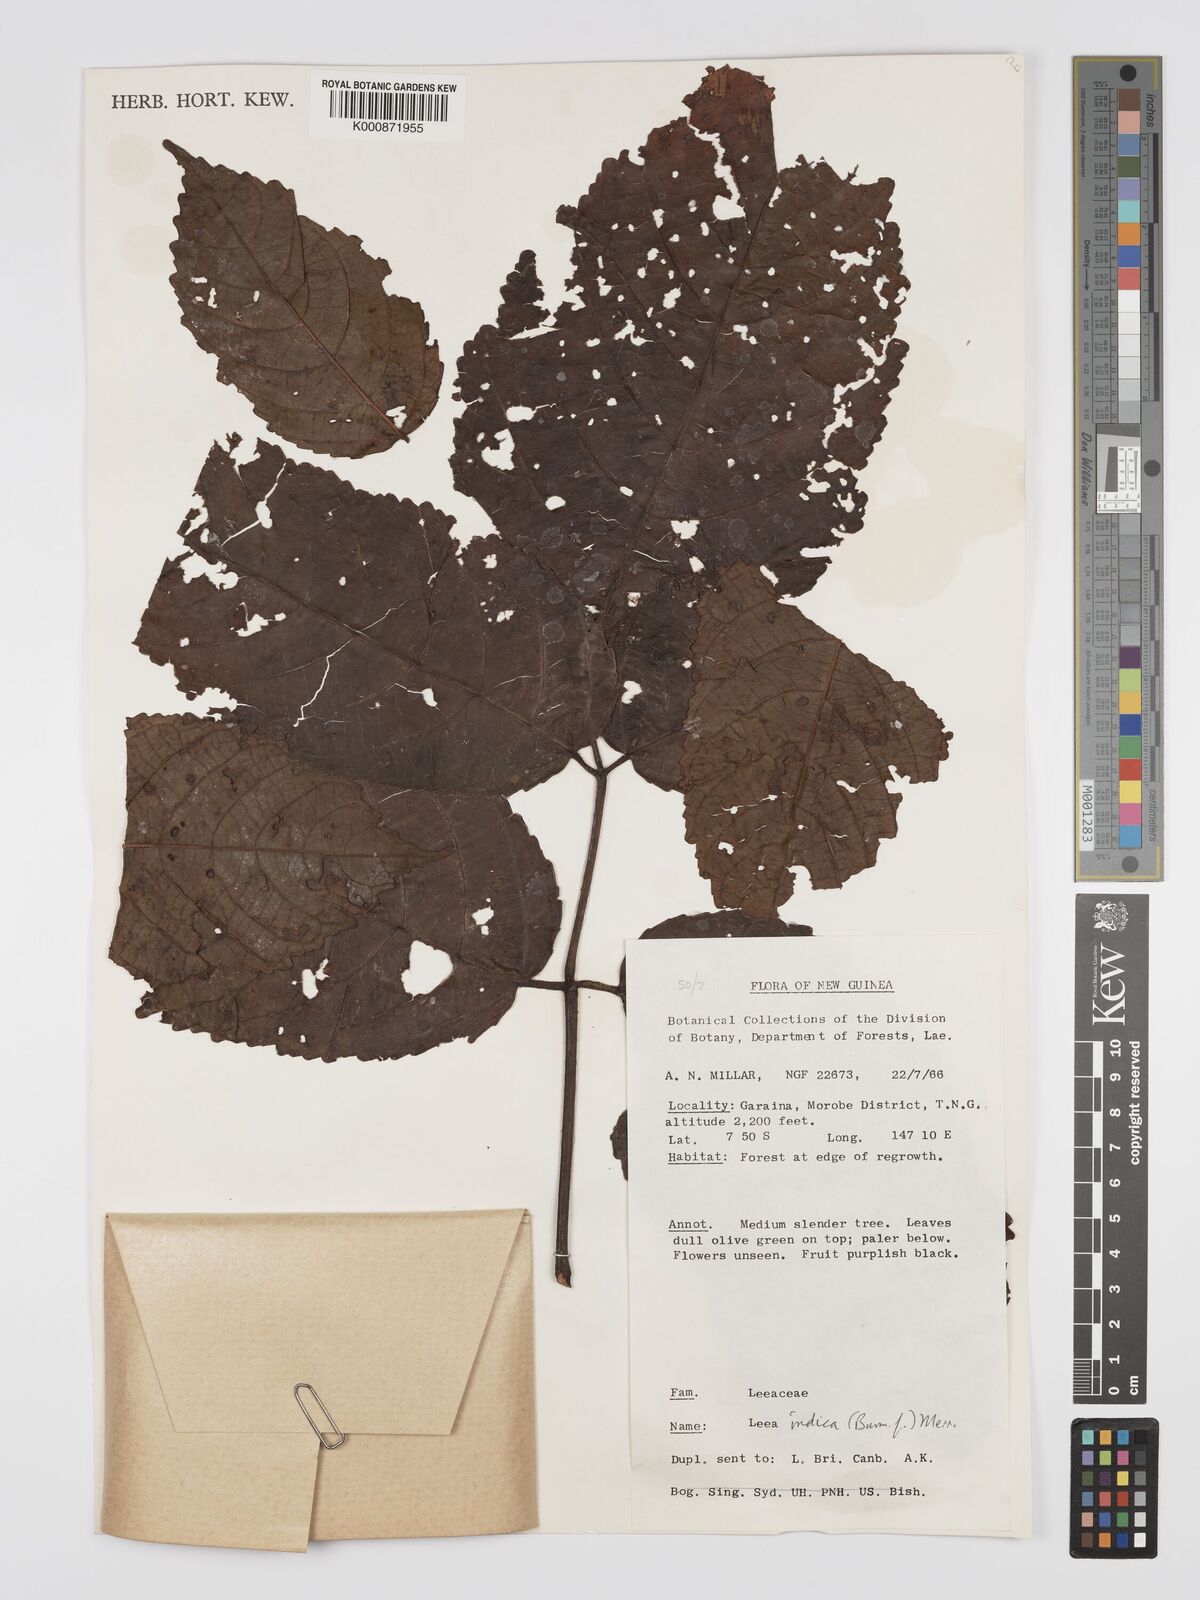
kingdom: Plantae
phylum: Tracheophyta
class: Magnoliopsida
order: Vitales
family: Vitaceae
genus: Leea
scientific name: Leea indica
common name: Bandicoot-berry
